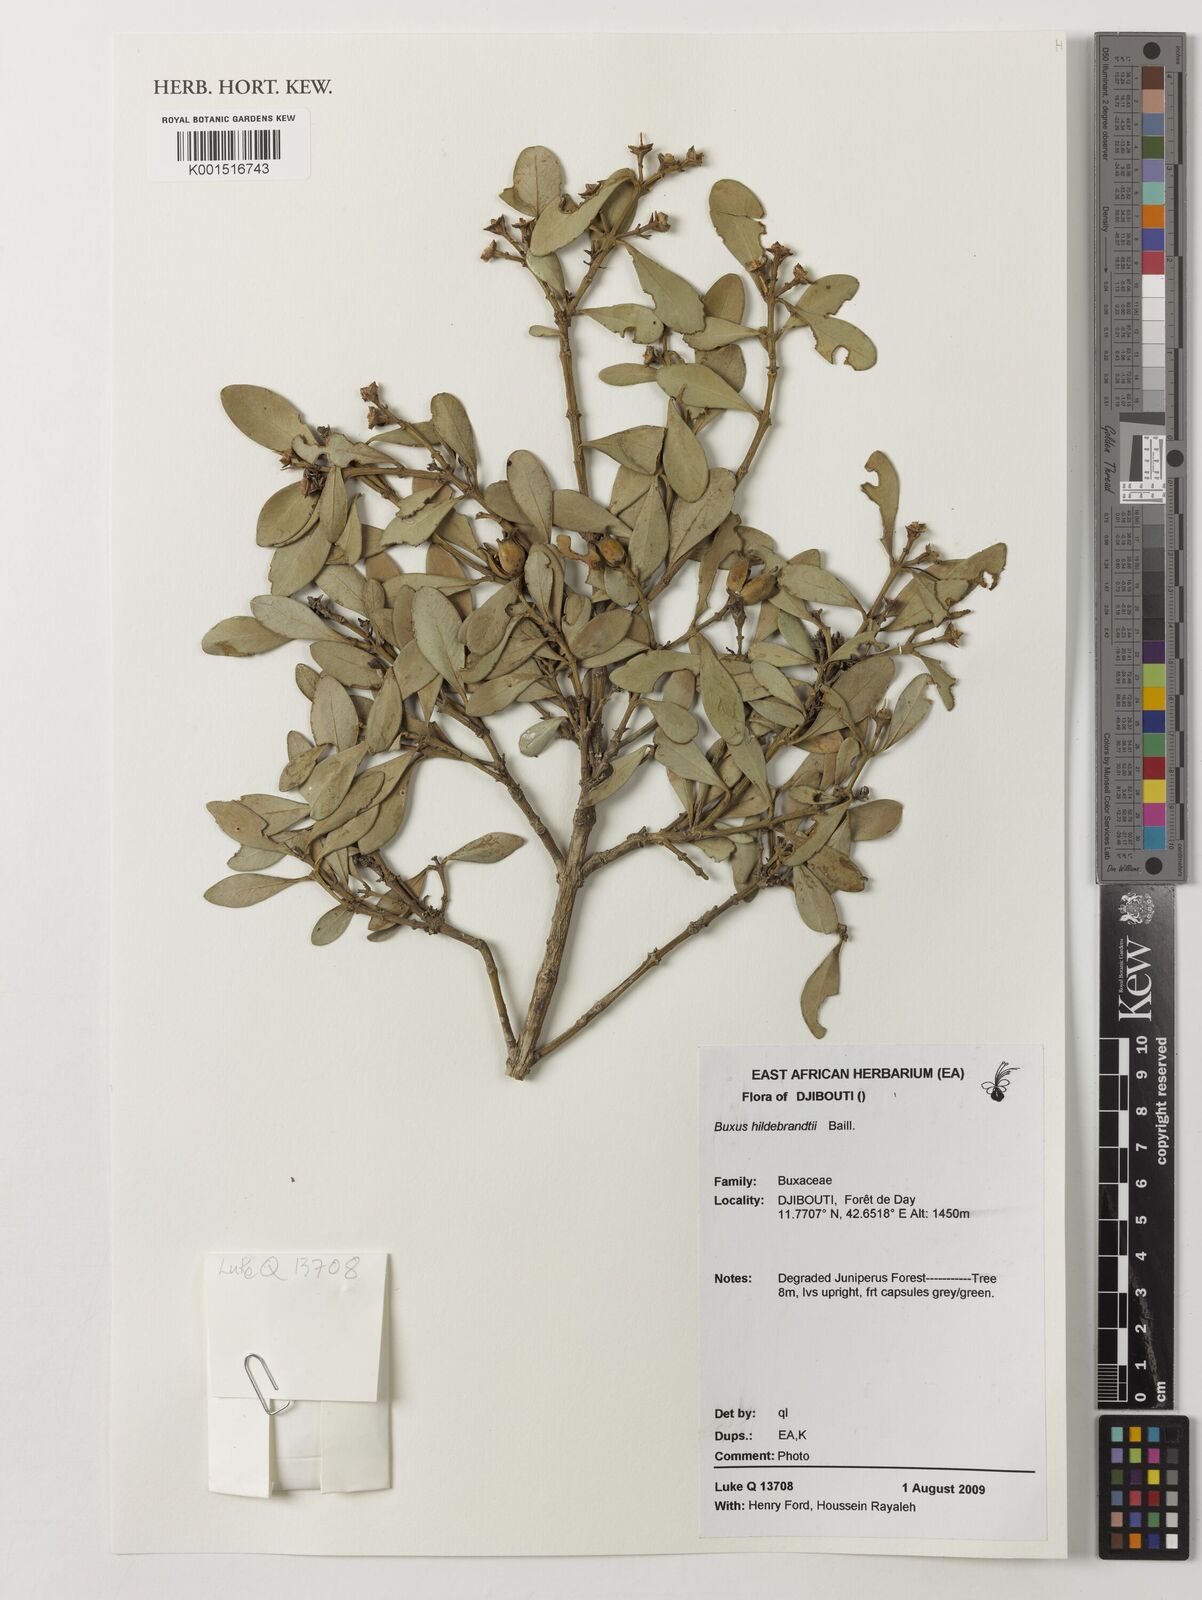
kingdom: Plantae
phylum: Tracheophyta
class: Magnoliopsida
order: Buxales
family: Buxaceae
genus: Buxus
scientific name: Buxus hildebrandtii
